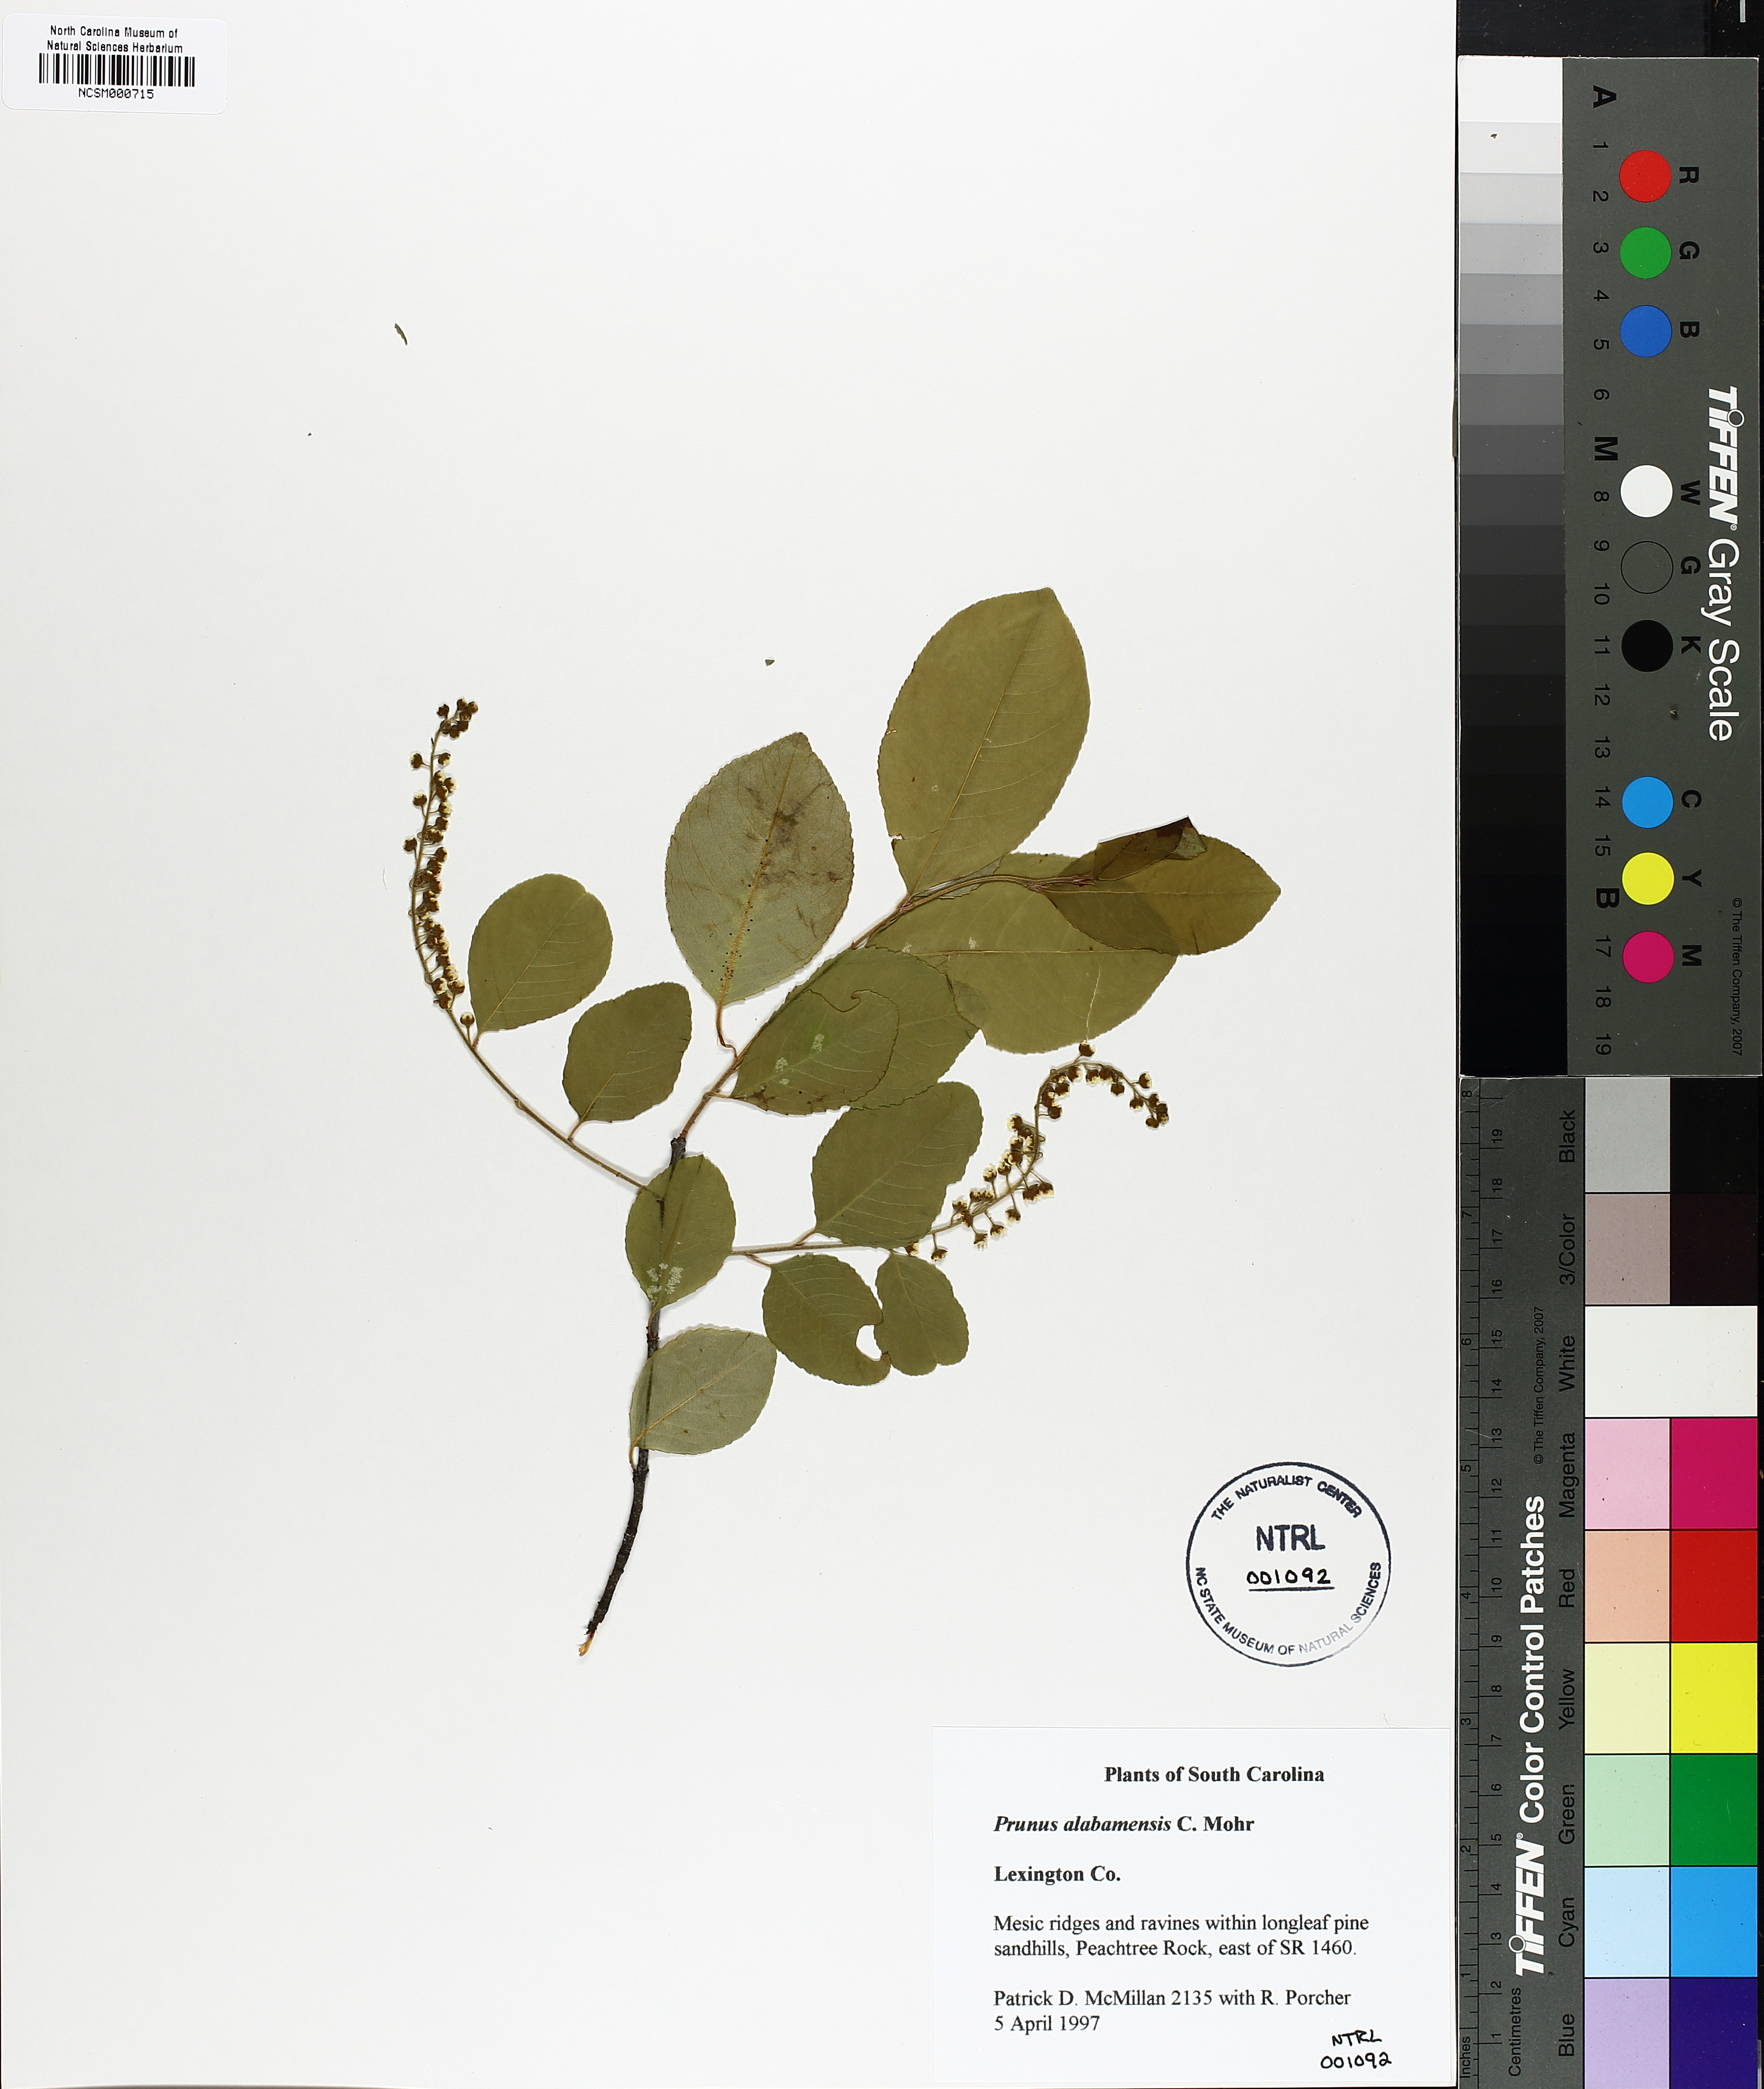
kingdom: Plantae
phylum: Tracheophyta
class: Magnoliopsida
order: Rosales
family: Rosaceae
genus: Prunus
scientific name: Prunus alabamensis
